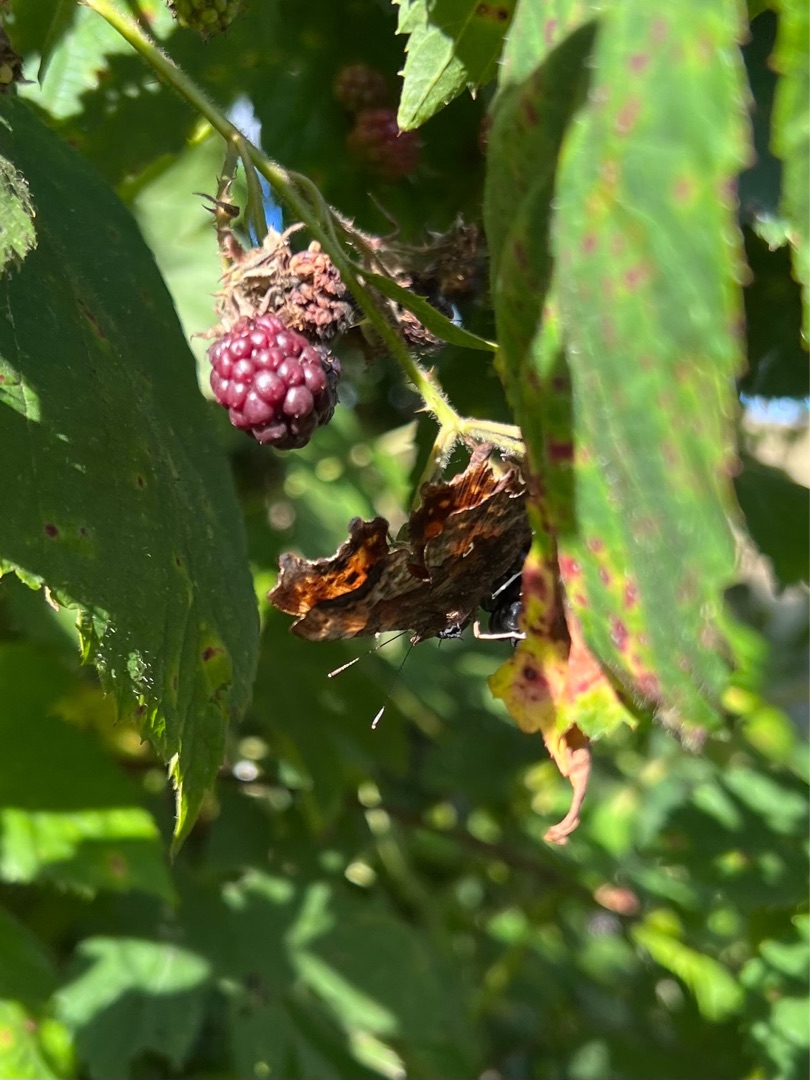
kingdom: Animalia
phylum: Arthropoda
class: Insecta
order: Lepidoptera
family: Nymphalidae
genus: Polygonia
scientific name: Polygonia c-album
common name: Det hvide C
